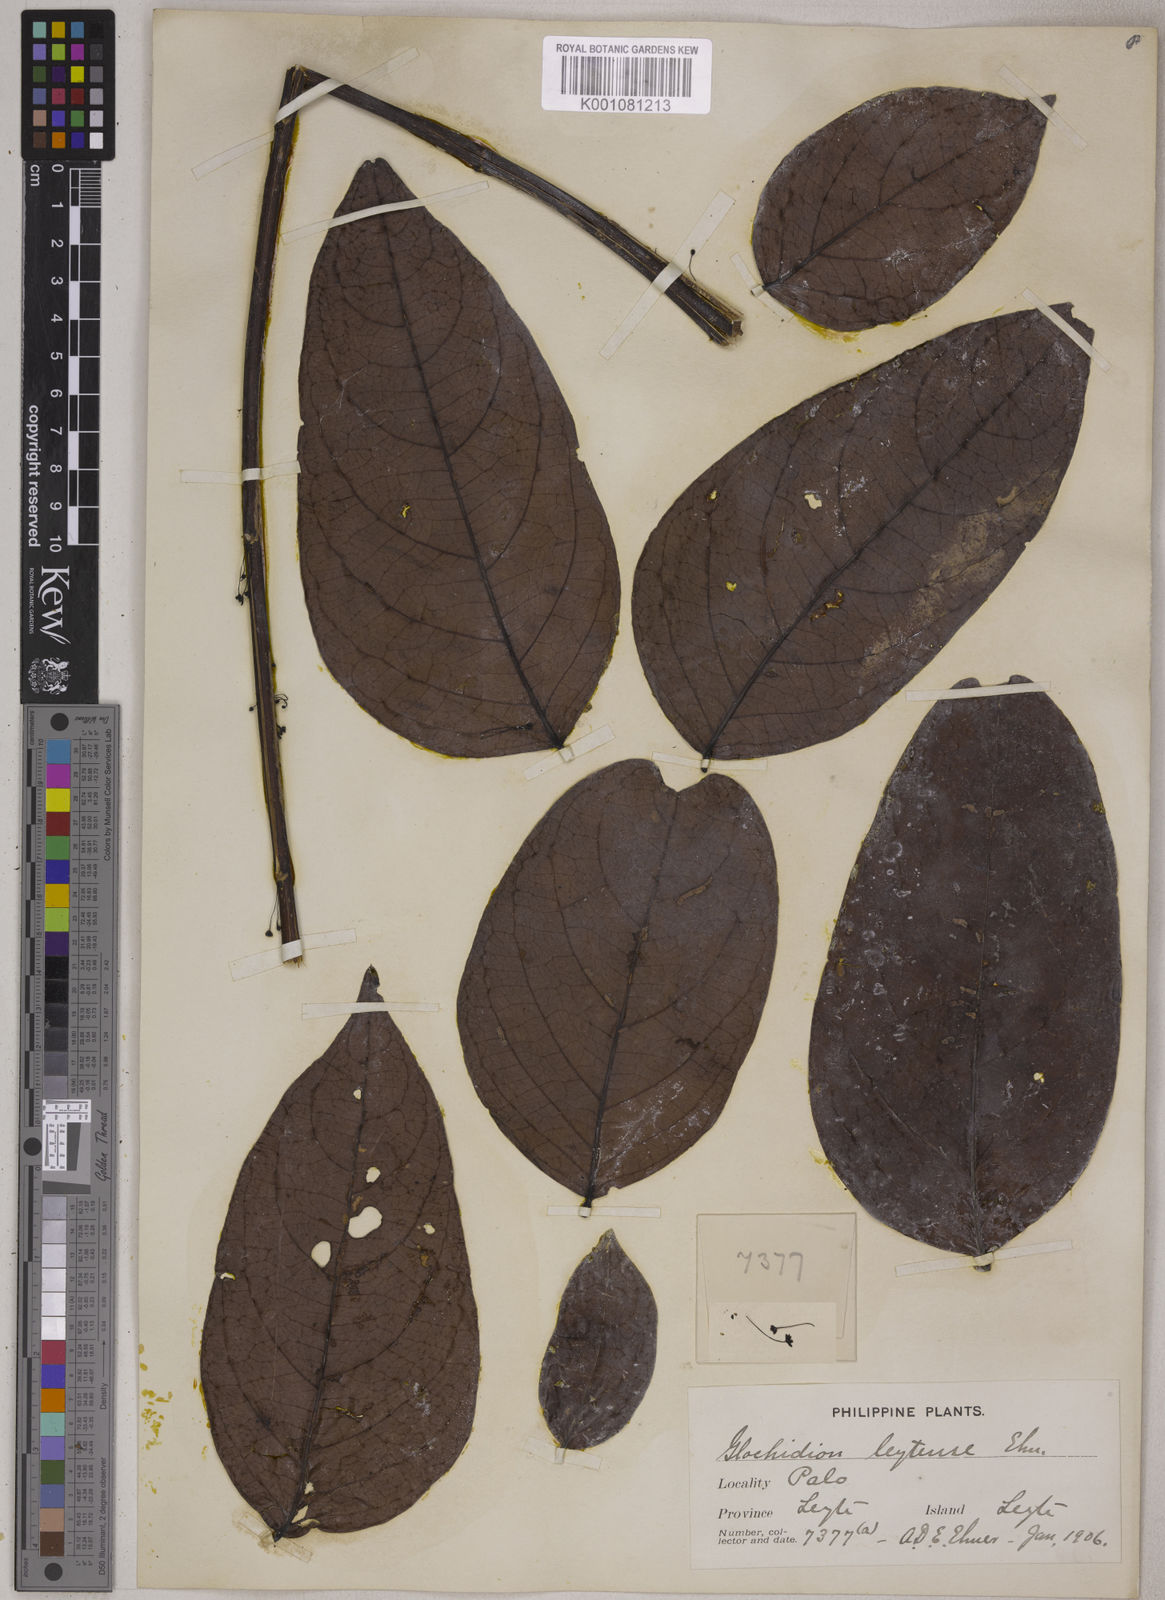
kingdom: Plantae
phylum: Tracheophyta
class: Magnoliopsida
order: Malpighiales
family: Phyllanthaceae
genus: Glochidion
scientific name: Glochidion album
